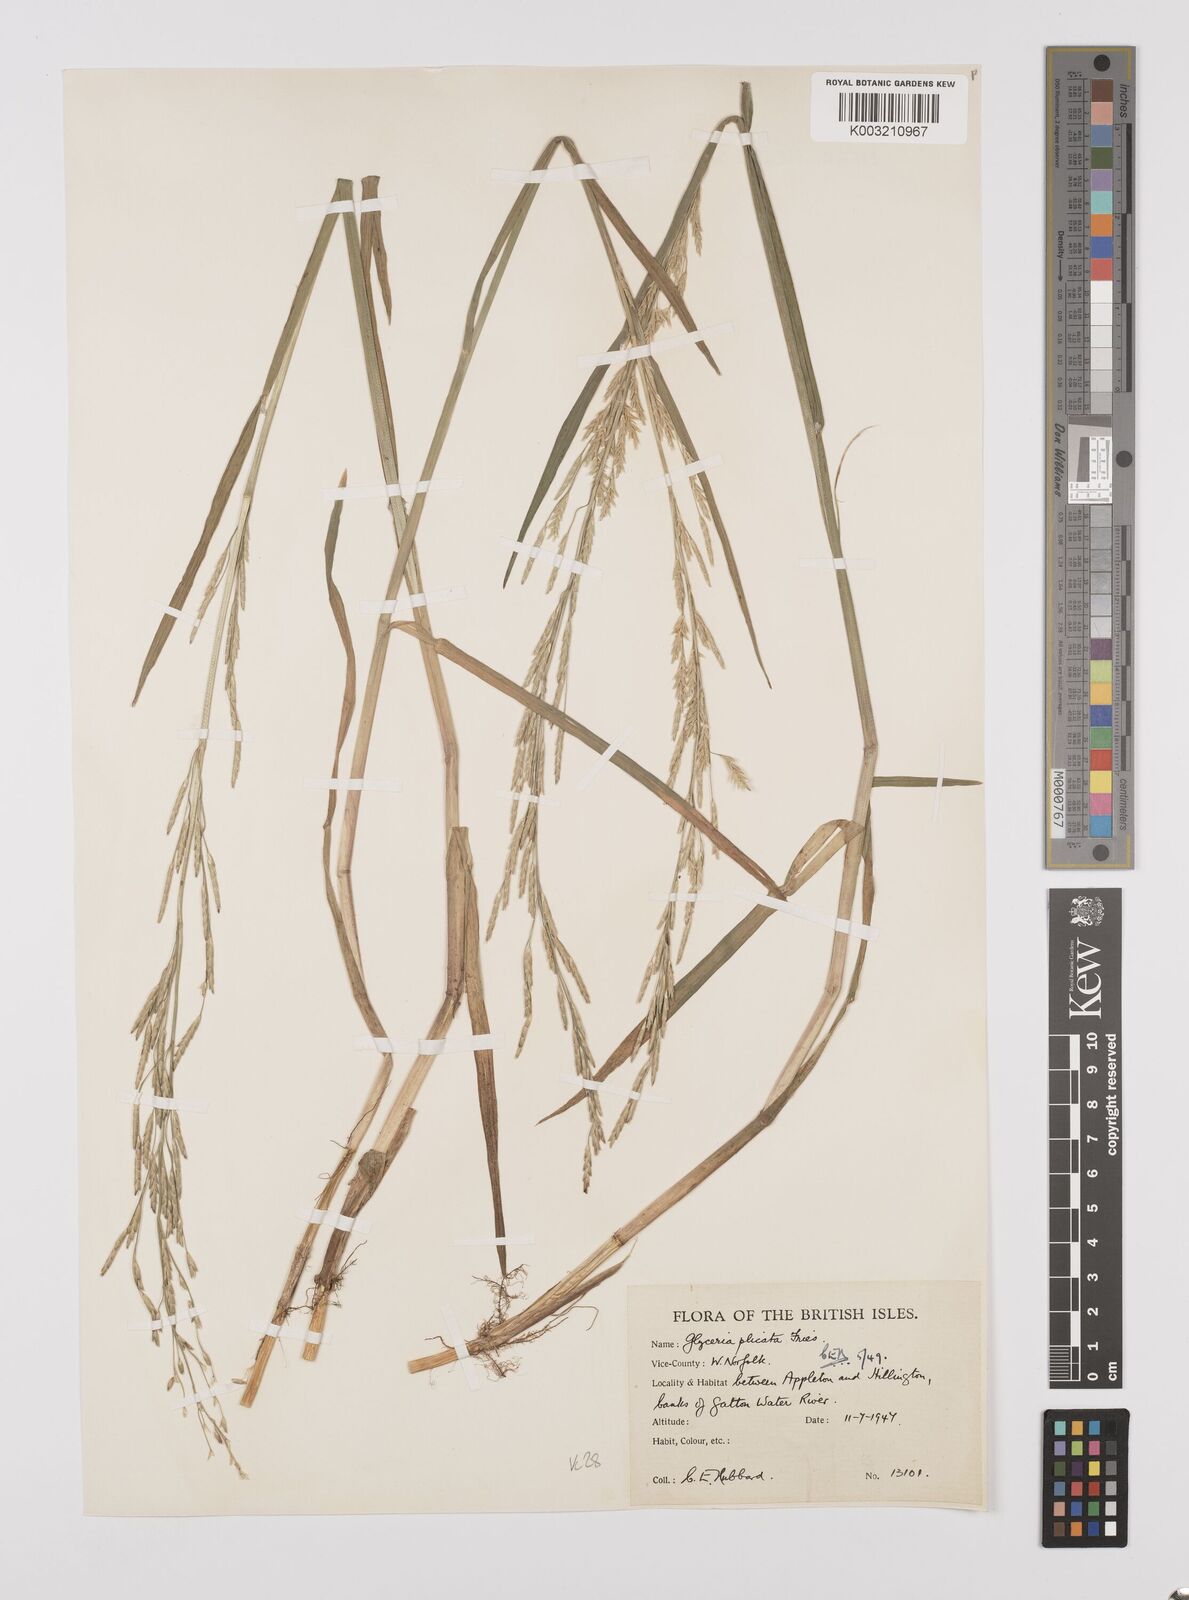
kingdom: Plantae
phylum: Tracheophyta
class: Liliopsida
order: Poales
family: Poaceae
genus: Glyceria
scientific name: Glyceria notata
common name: Plicate sweet-grass
